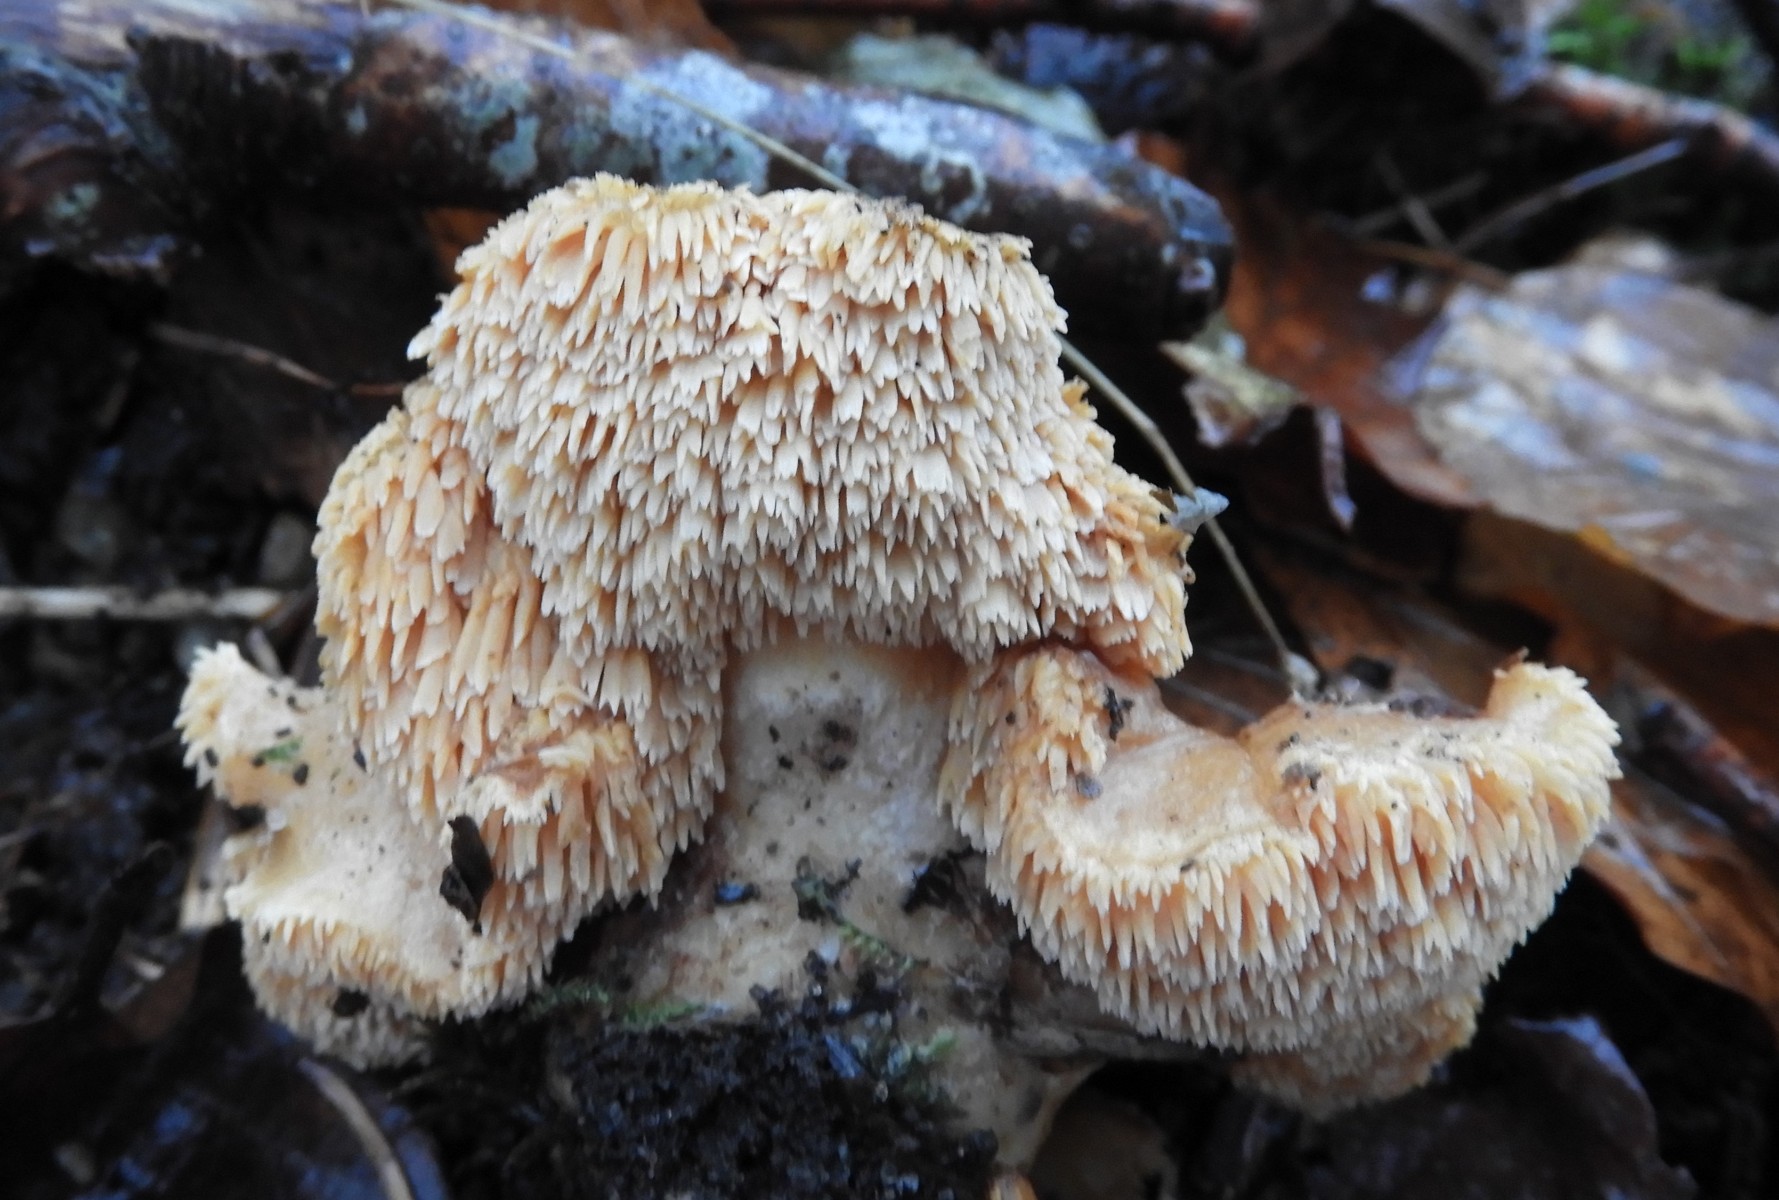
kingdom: Fungi
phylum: Basidiomycota
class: Agaricomycetes
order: Cantharellales
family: Hydnaceae
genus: Hydnum
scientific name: Hydnum
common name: pigsvamp
